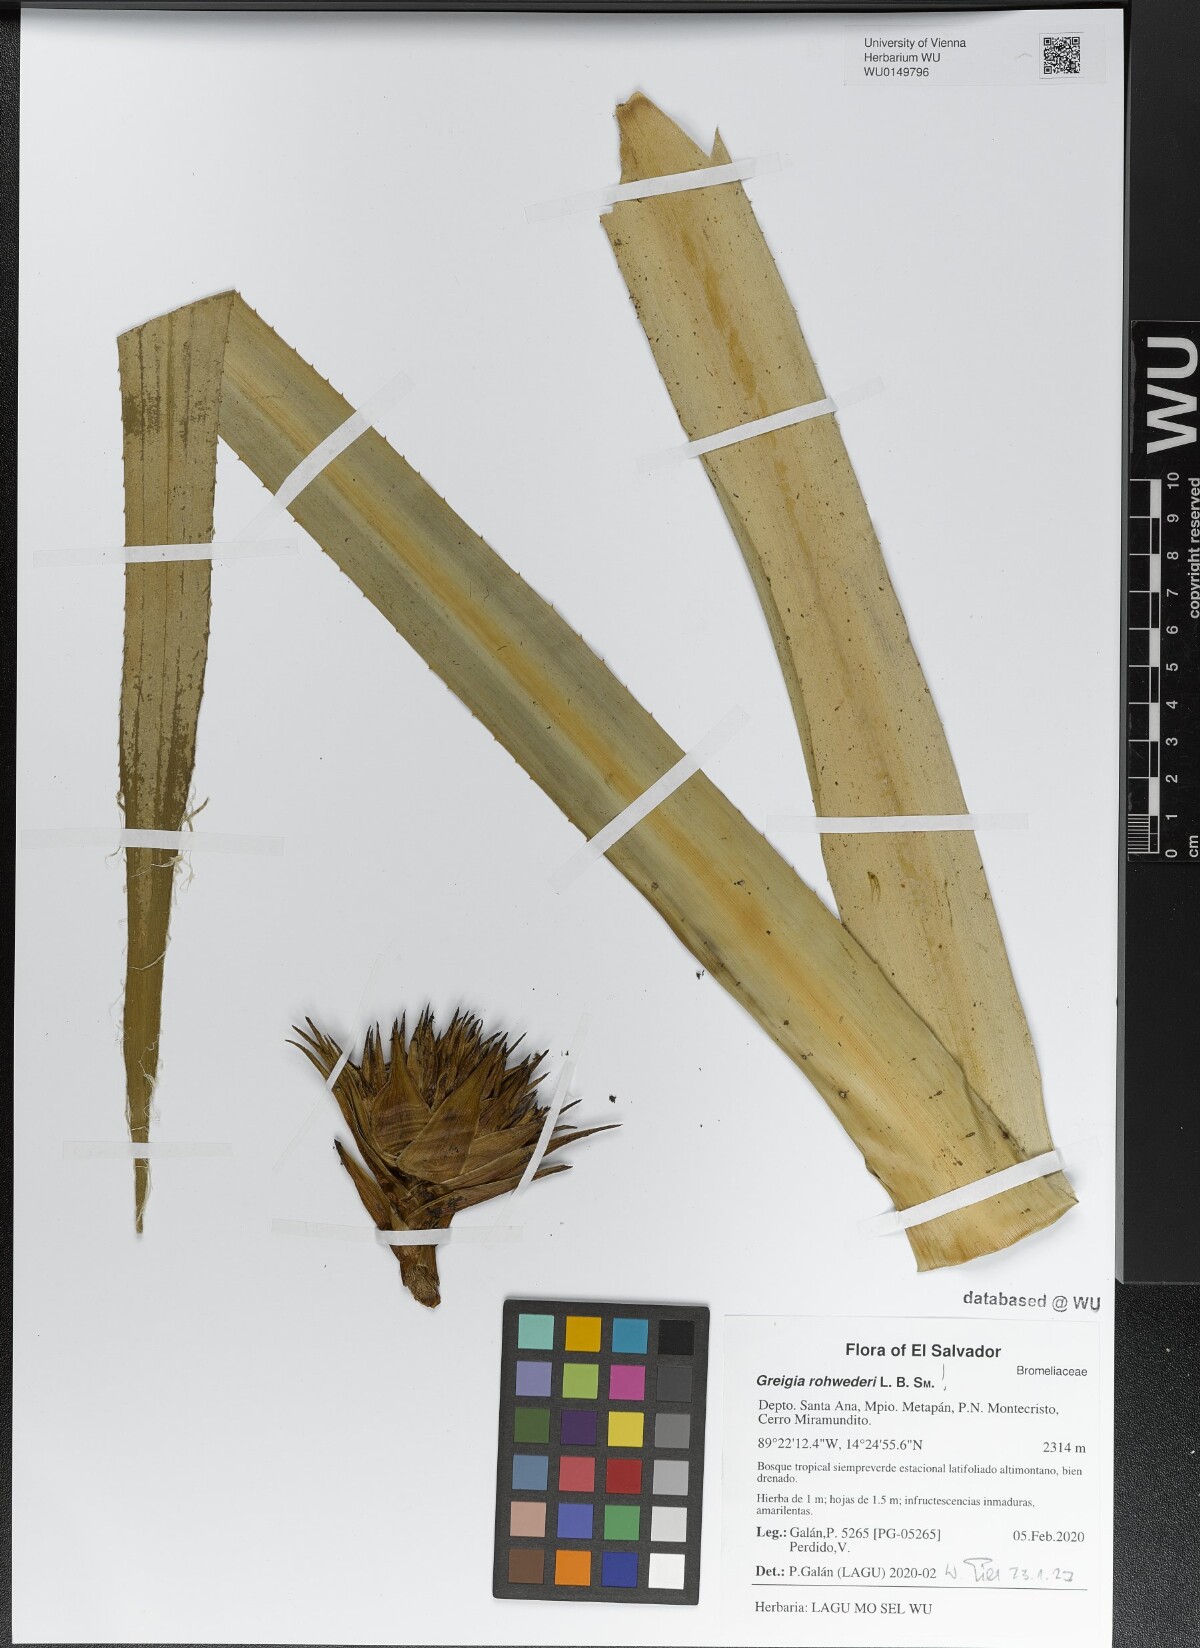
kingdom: Plantae
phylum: Tracheophyta
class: Liliopsida
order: Poales
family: Bromeliaceae
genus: Greigia
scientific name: Greigia rohwederi
